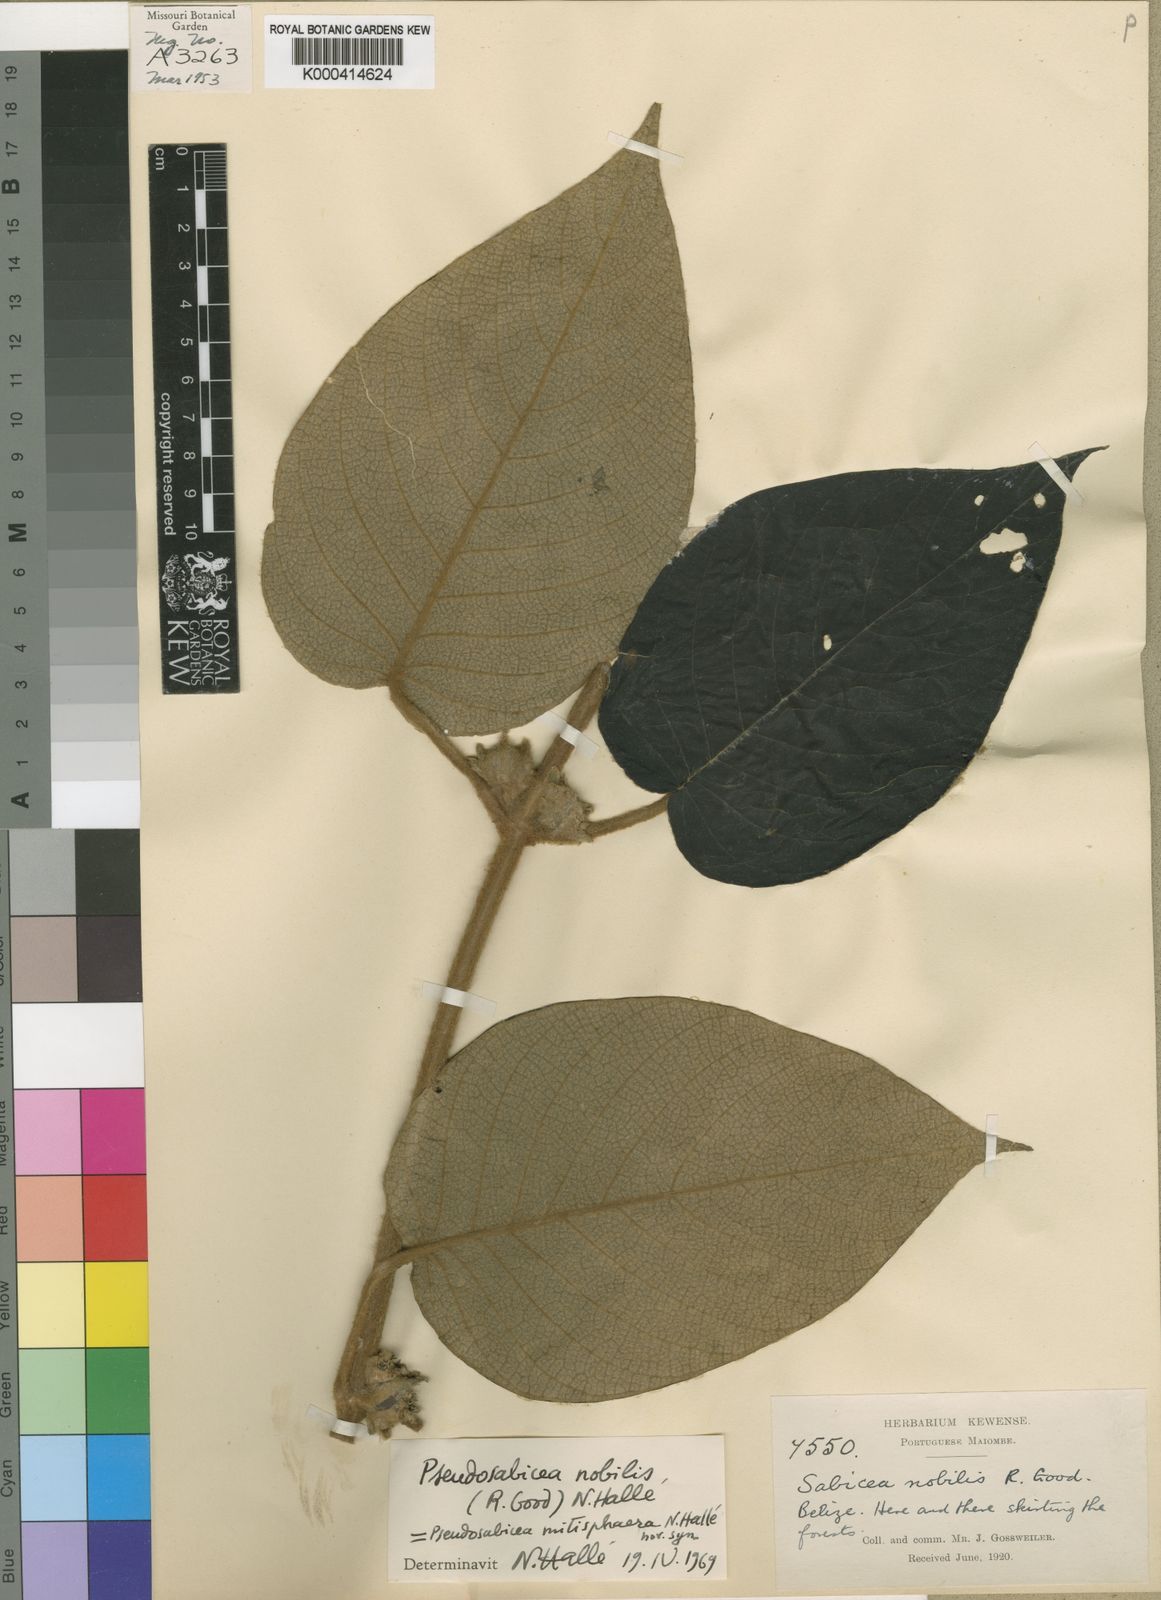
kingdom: Plantae
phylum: Tracheophyta
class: Magnoliopsida
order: Gentianales
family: Rubiaceae
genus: Sabicea
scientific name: Sabicea nobilis
